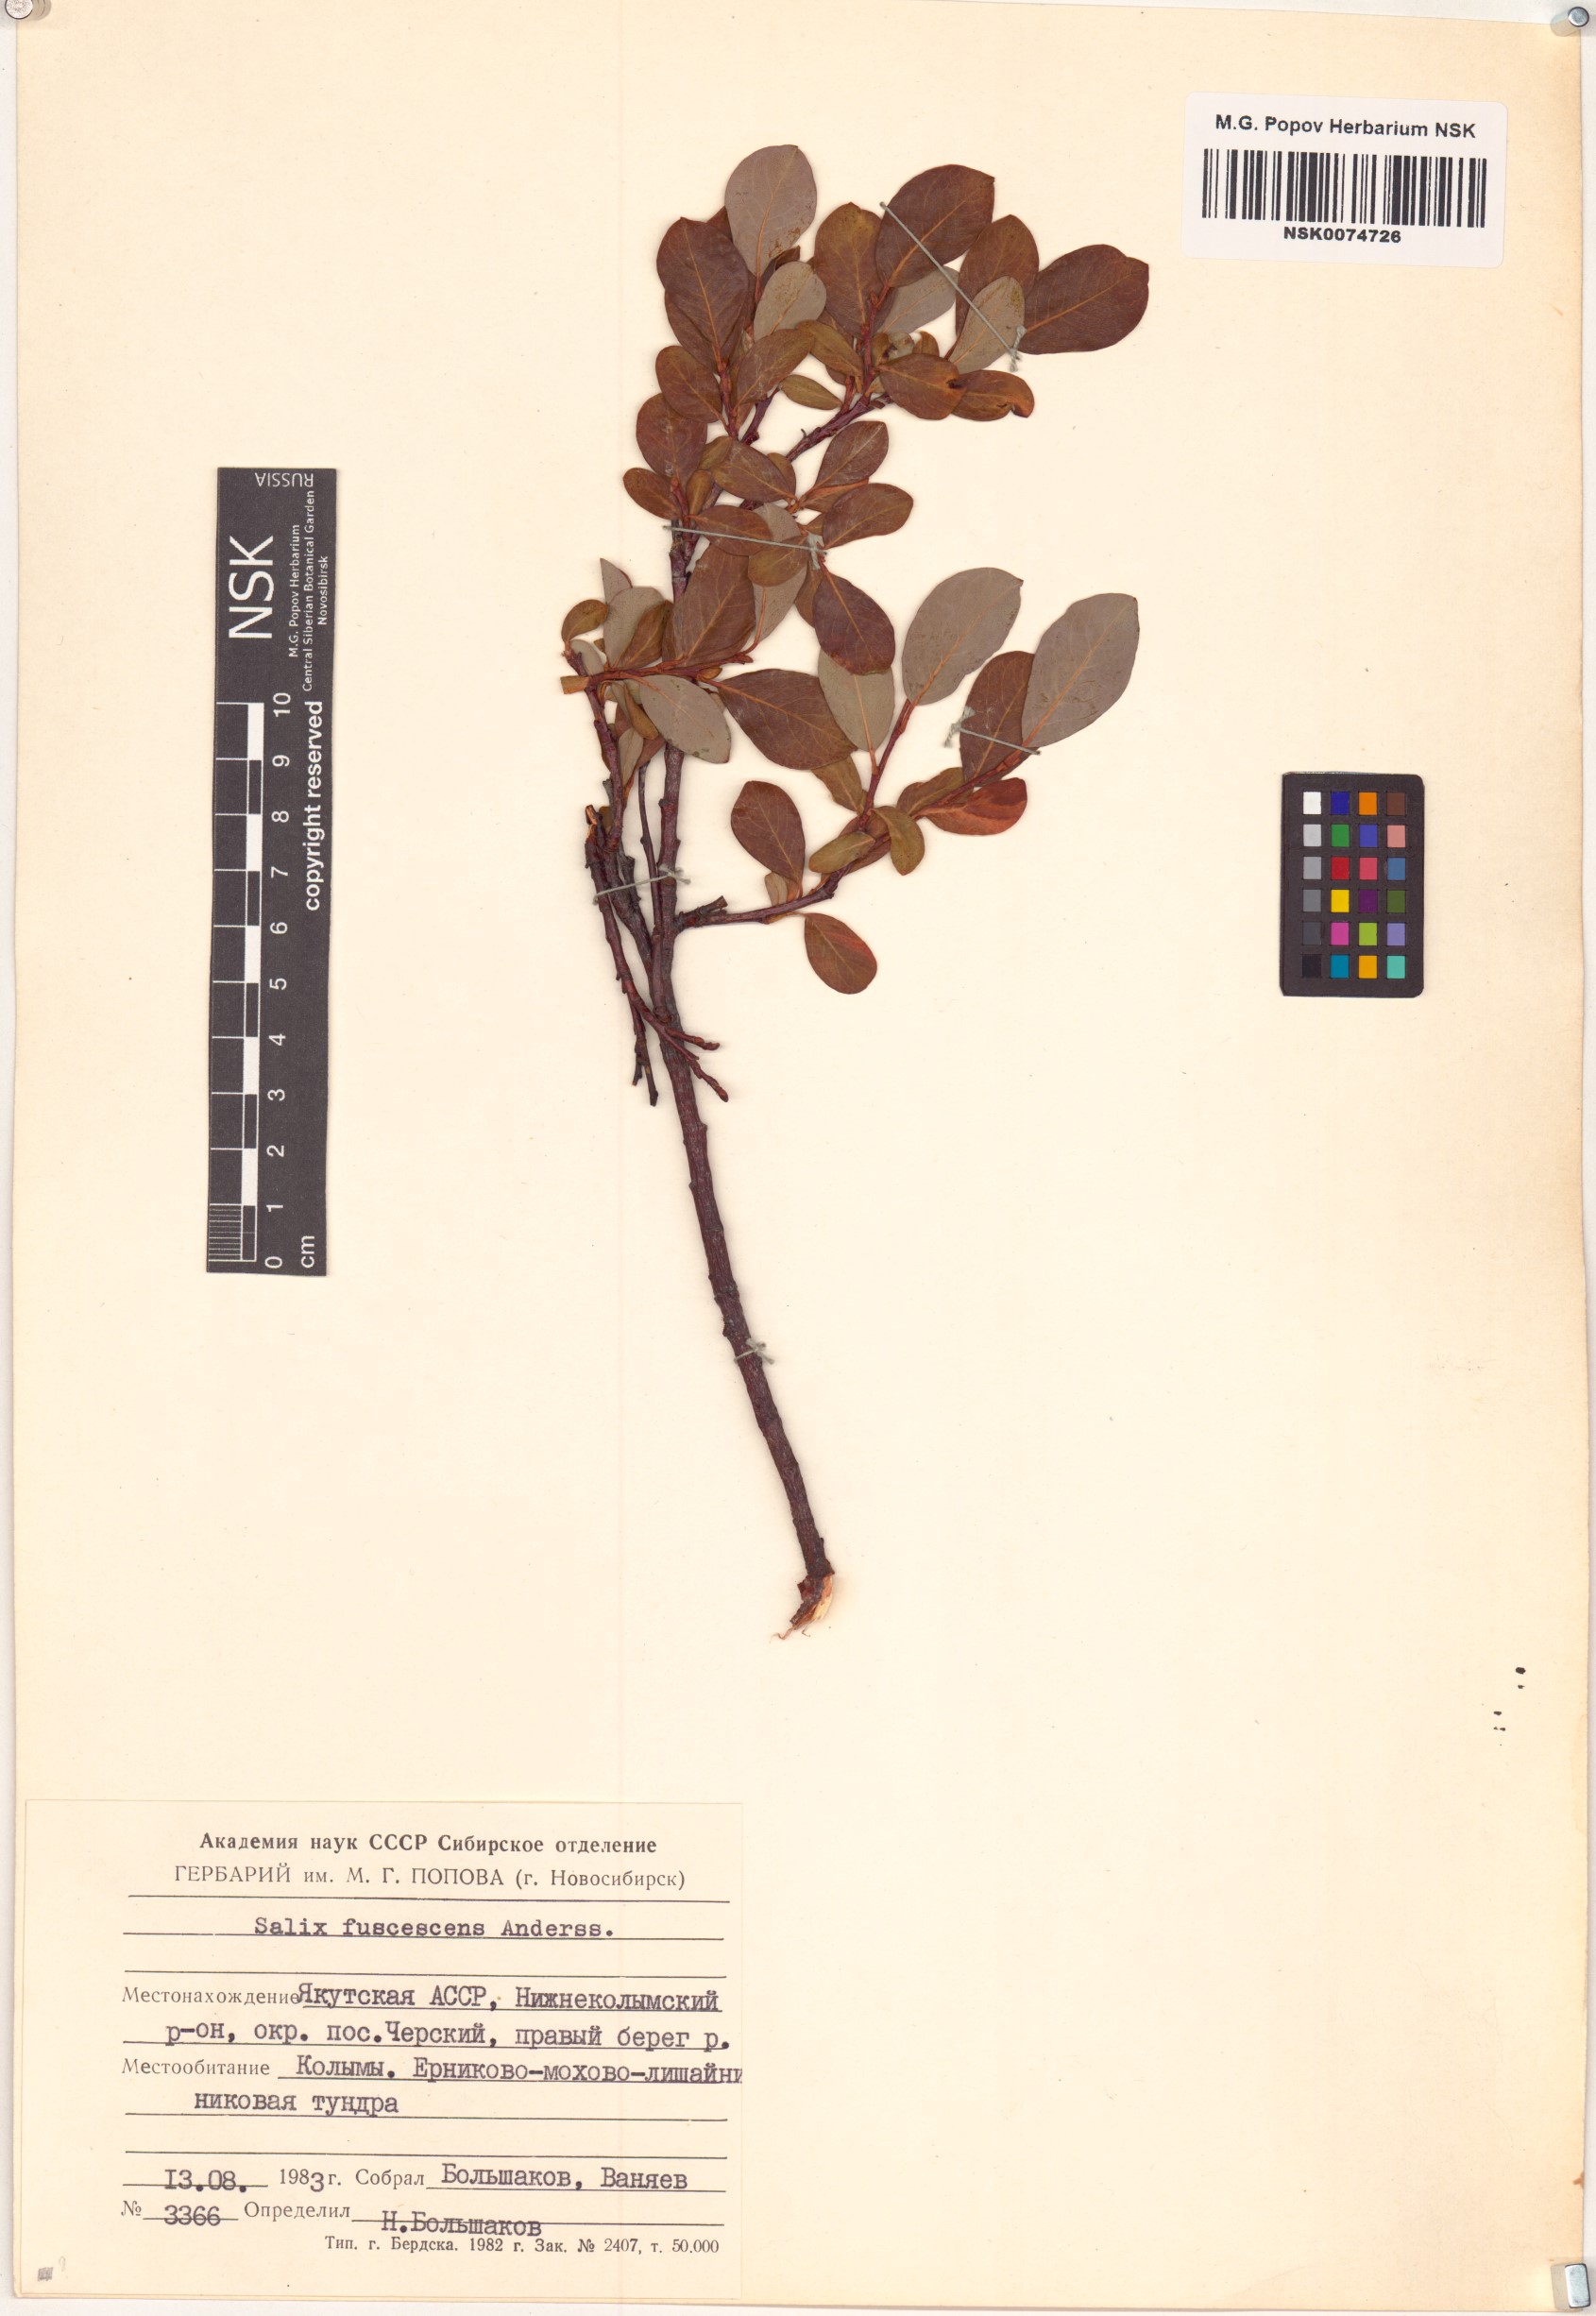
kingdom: Plantae
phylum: Tracheophyta
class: Magnoliopsida
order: Malpighiales
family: Salicaceae
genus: Salix
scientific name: Salix fuscescens
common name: Brownish willow
